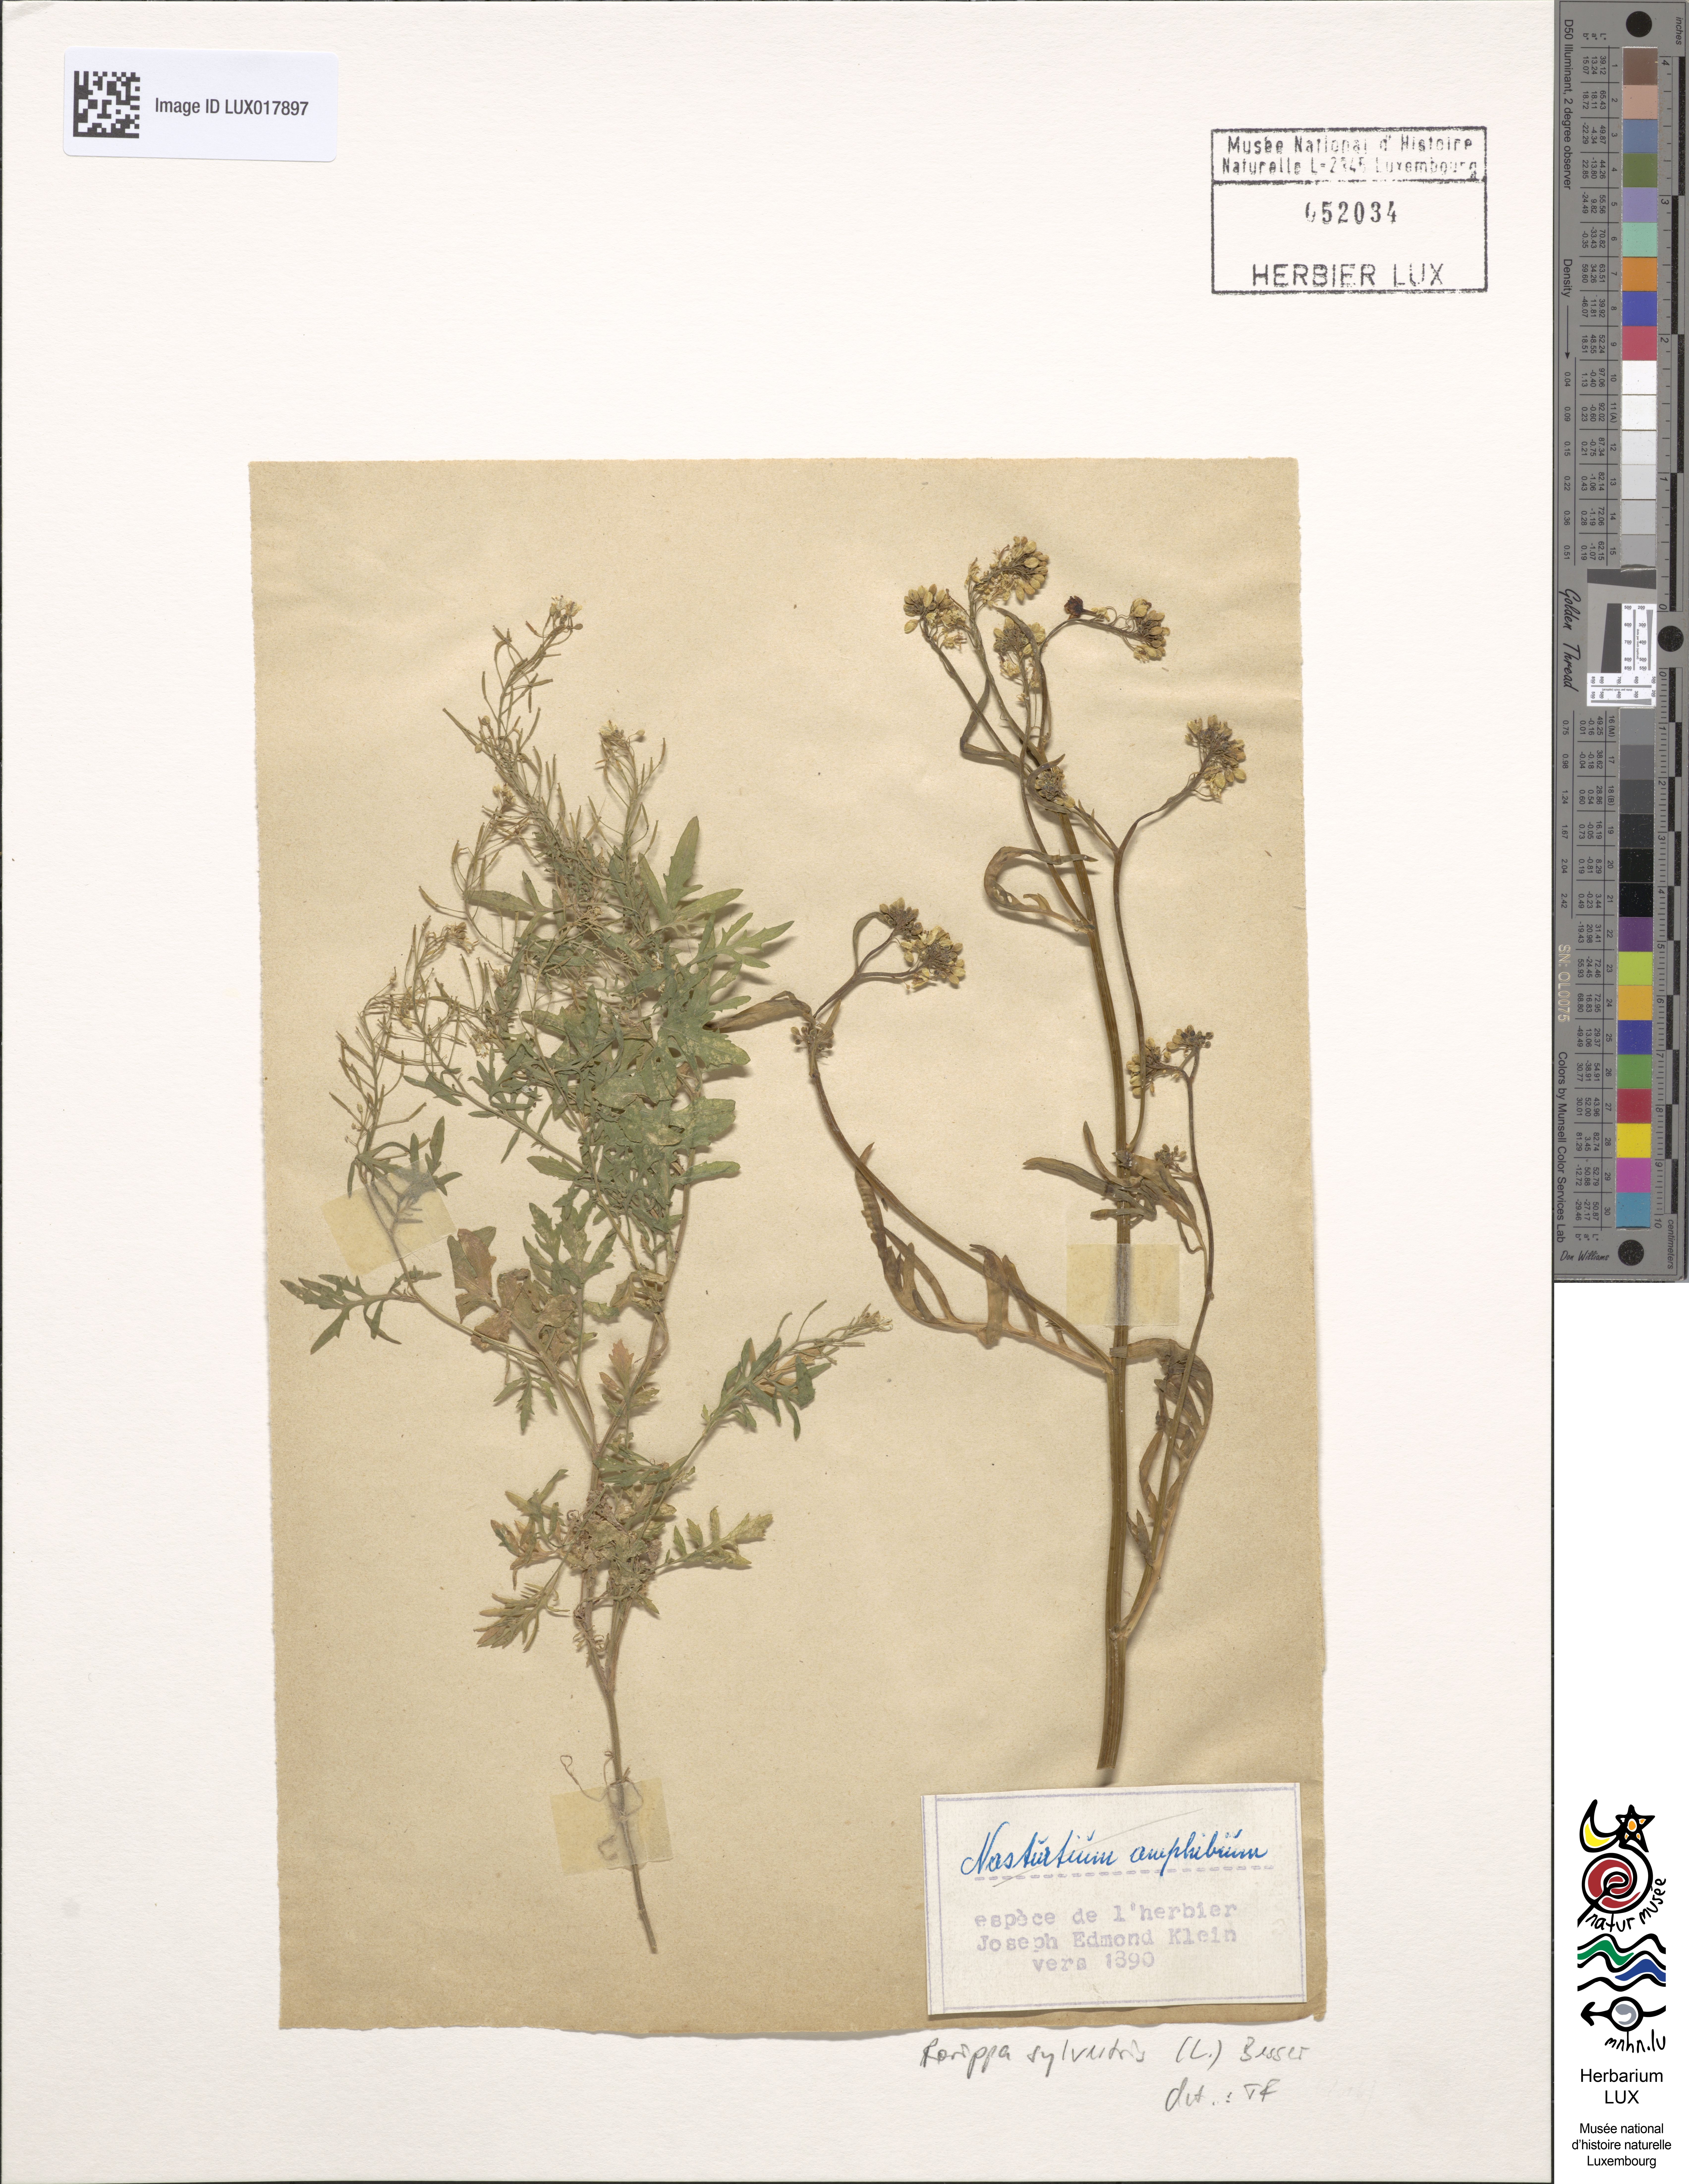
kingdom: Plantae
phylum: Tracheophyta
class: Magnoliopsida
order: Brassicales
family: Brassicaceae
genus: Rorippa
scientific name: Rorippa sylvestris
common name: Creeping yellowcress
